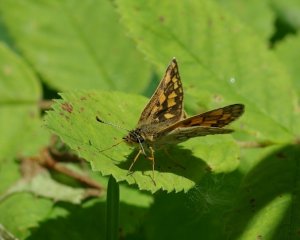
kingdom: Animalia
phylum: Arthropoda
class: Insecta
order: Lepidoptera
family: Hesperiidae
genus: Carterocephalus
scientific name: Carterocephalus palaemon
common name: Chequered Skipper
